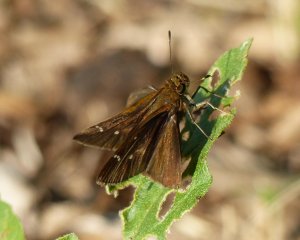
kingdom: Animalia
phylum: Arthropoda
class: Insecta
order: Lepidoptera
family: Hesperiidae
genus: Lerema
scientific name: Lerema accius
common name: Clouded Skipper
